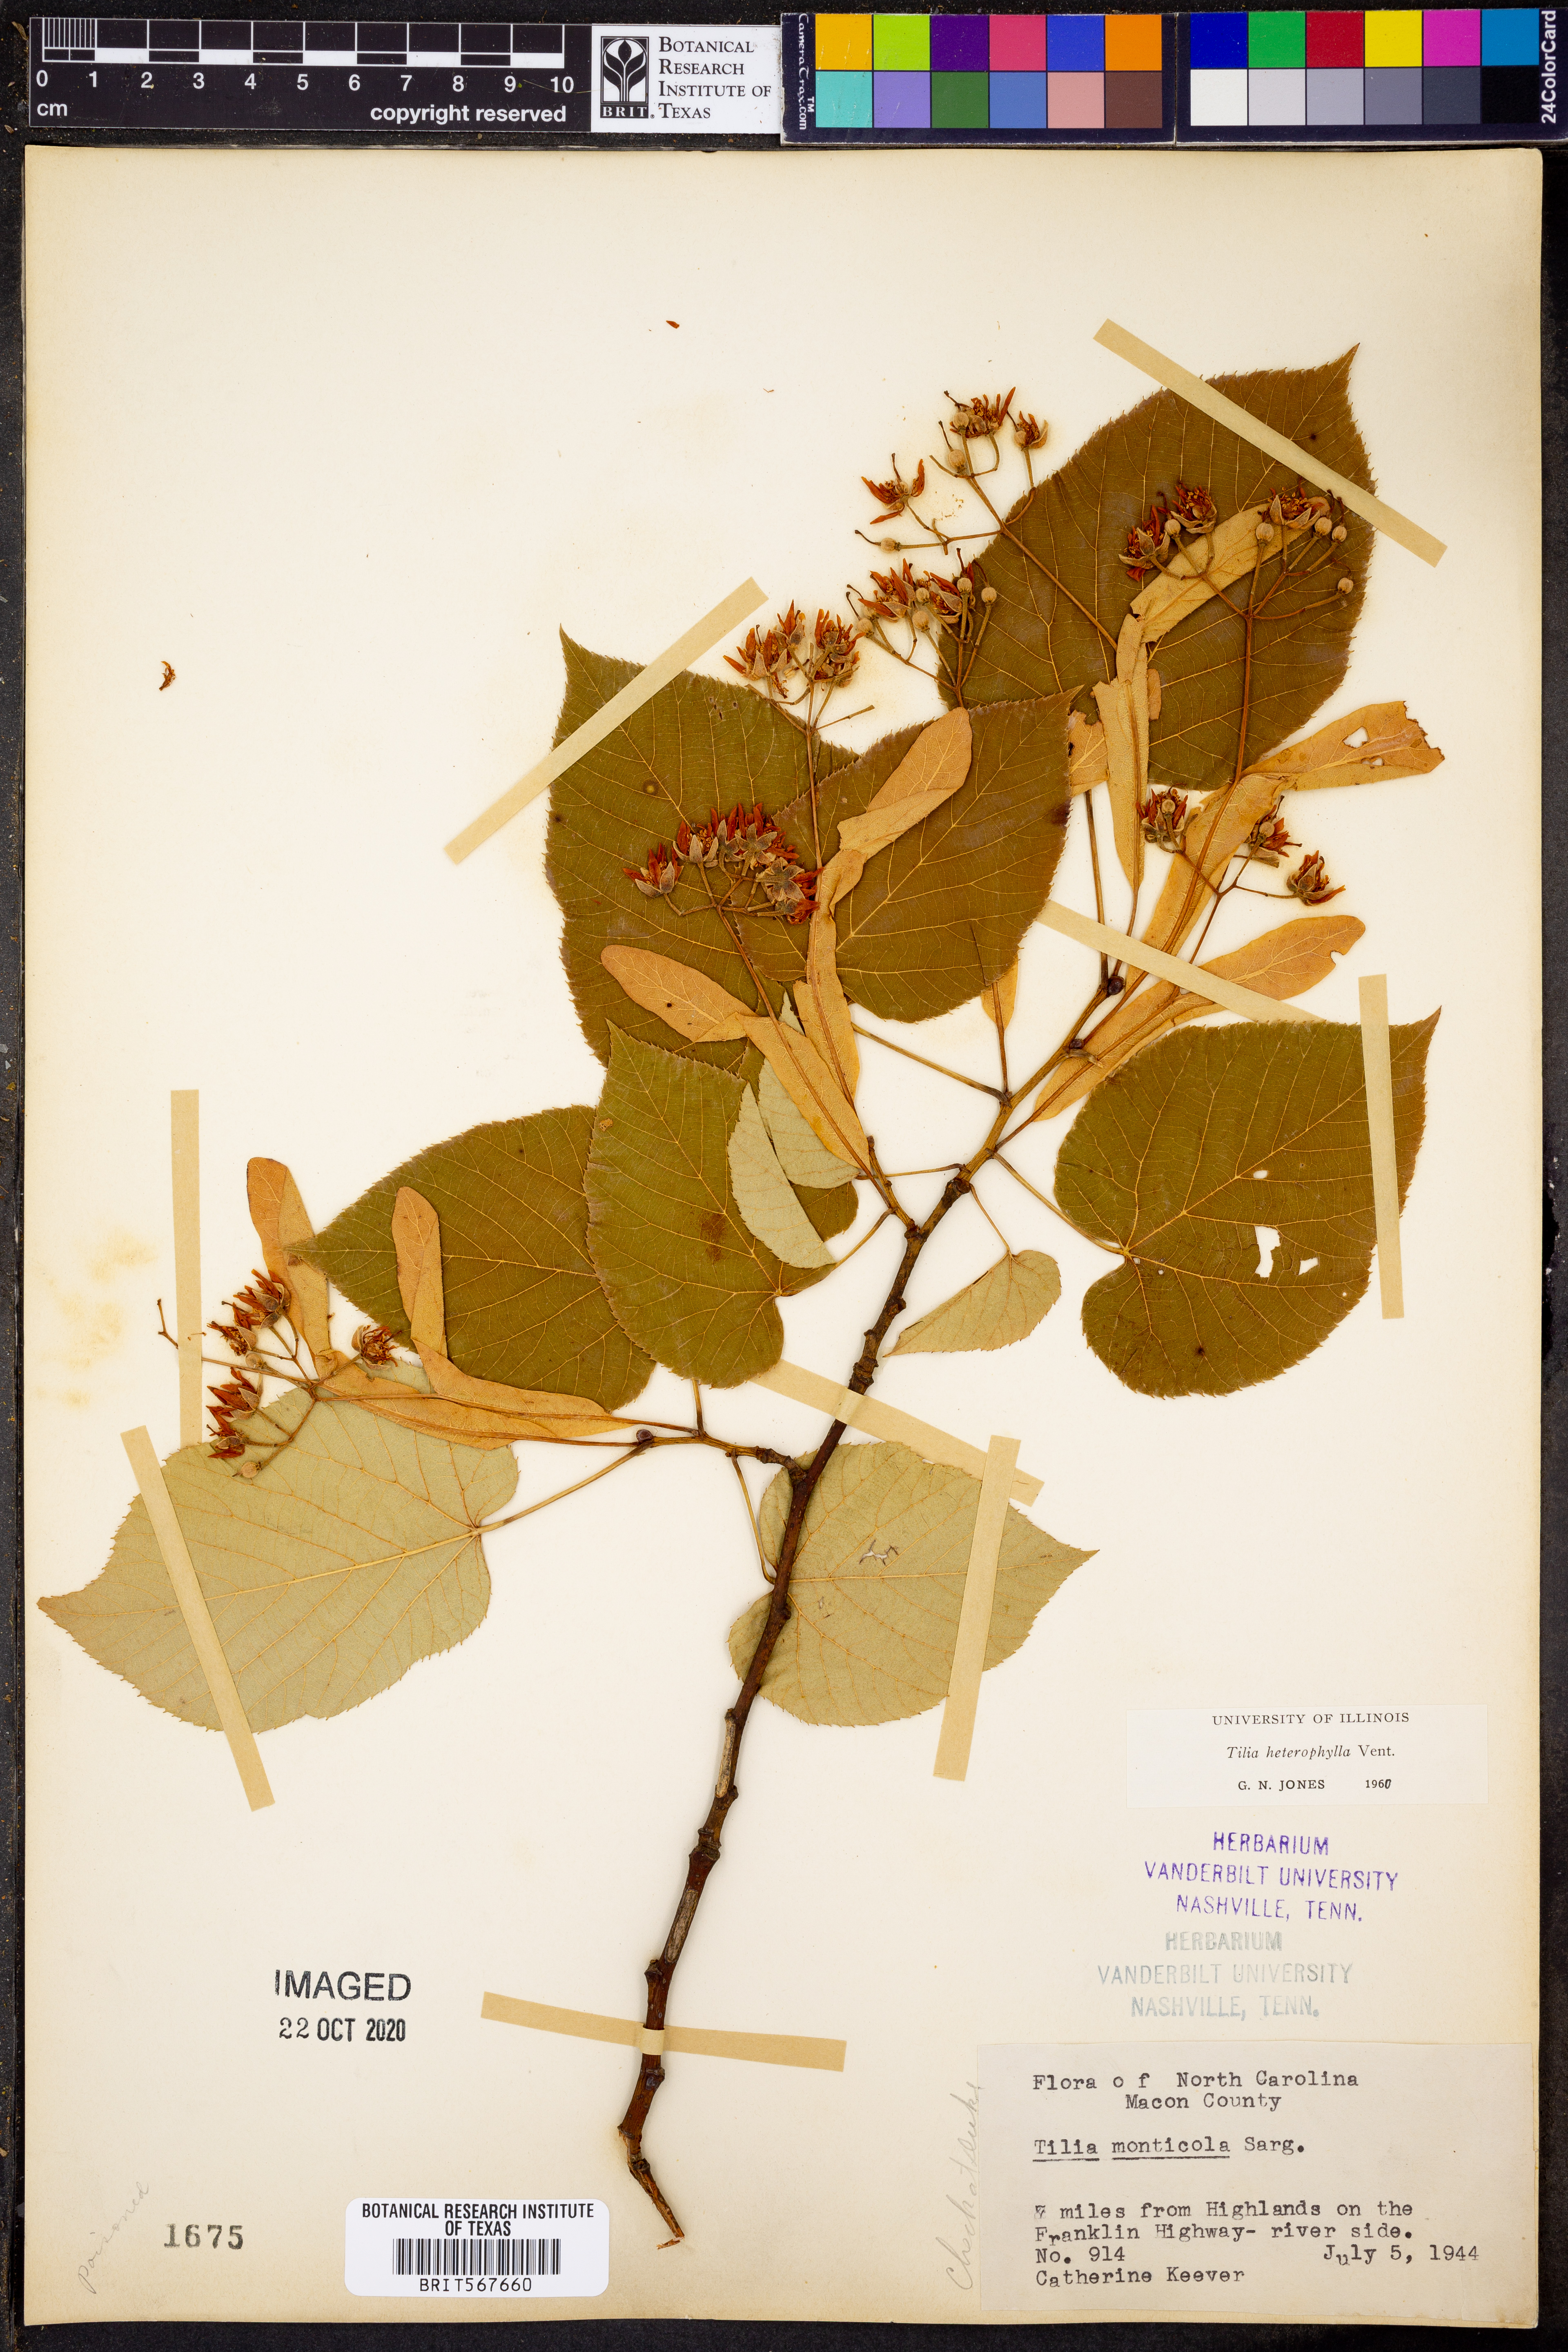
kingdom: Plantae
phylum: Tracheophyta
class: Magnoliopsida
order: Malvales
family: Malvaceae
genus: Tilia
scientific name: Tilia americana
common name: Basswood
